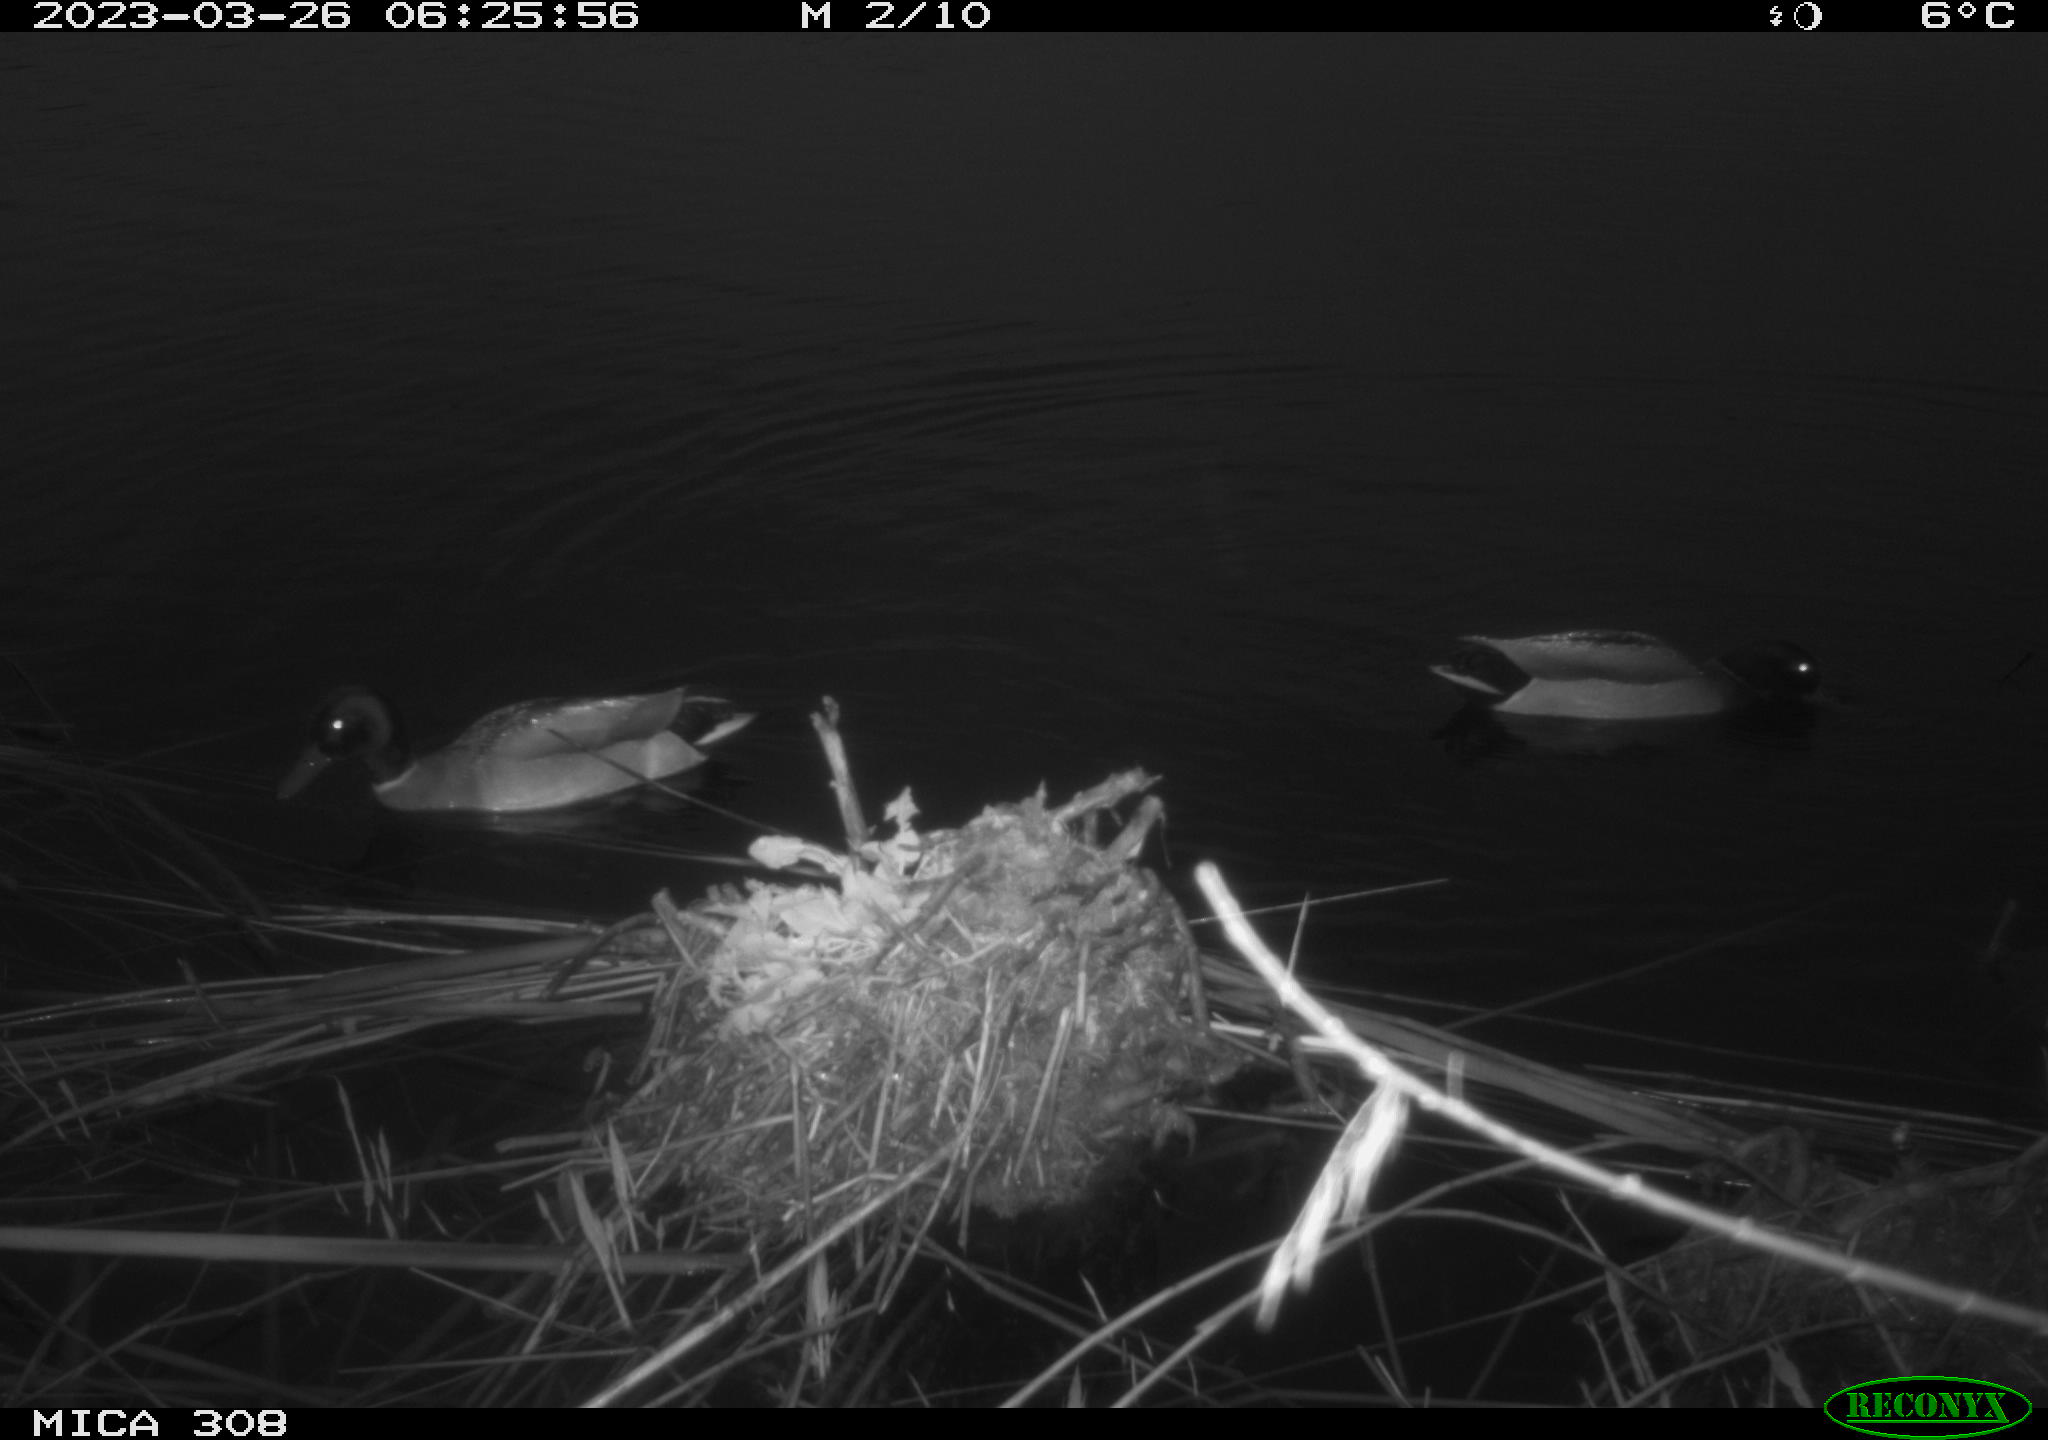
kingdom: Animalia
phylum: Chordata
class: Aves
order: Anseriformes
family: Anatidae
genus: Anas
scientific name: Anas
